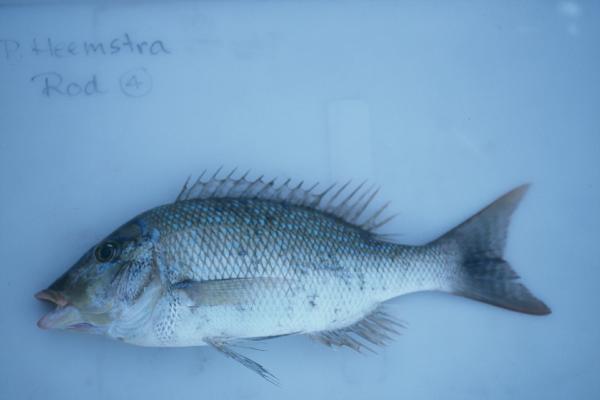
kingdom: Animalia
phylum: Chordata
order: Perciformes
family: Lethrinidae
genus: Lethrinus
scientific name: Lethrinus nebulosus
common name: Spangled emperor
